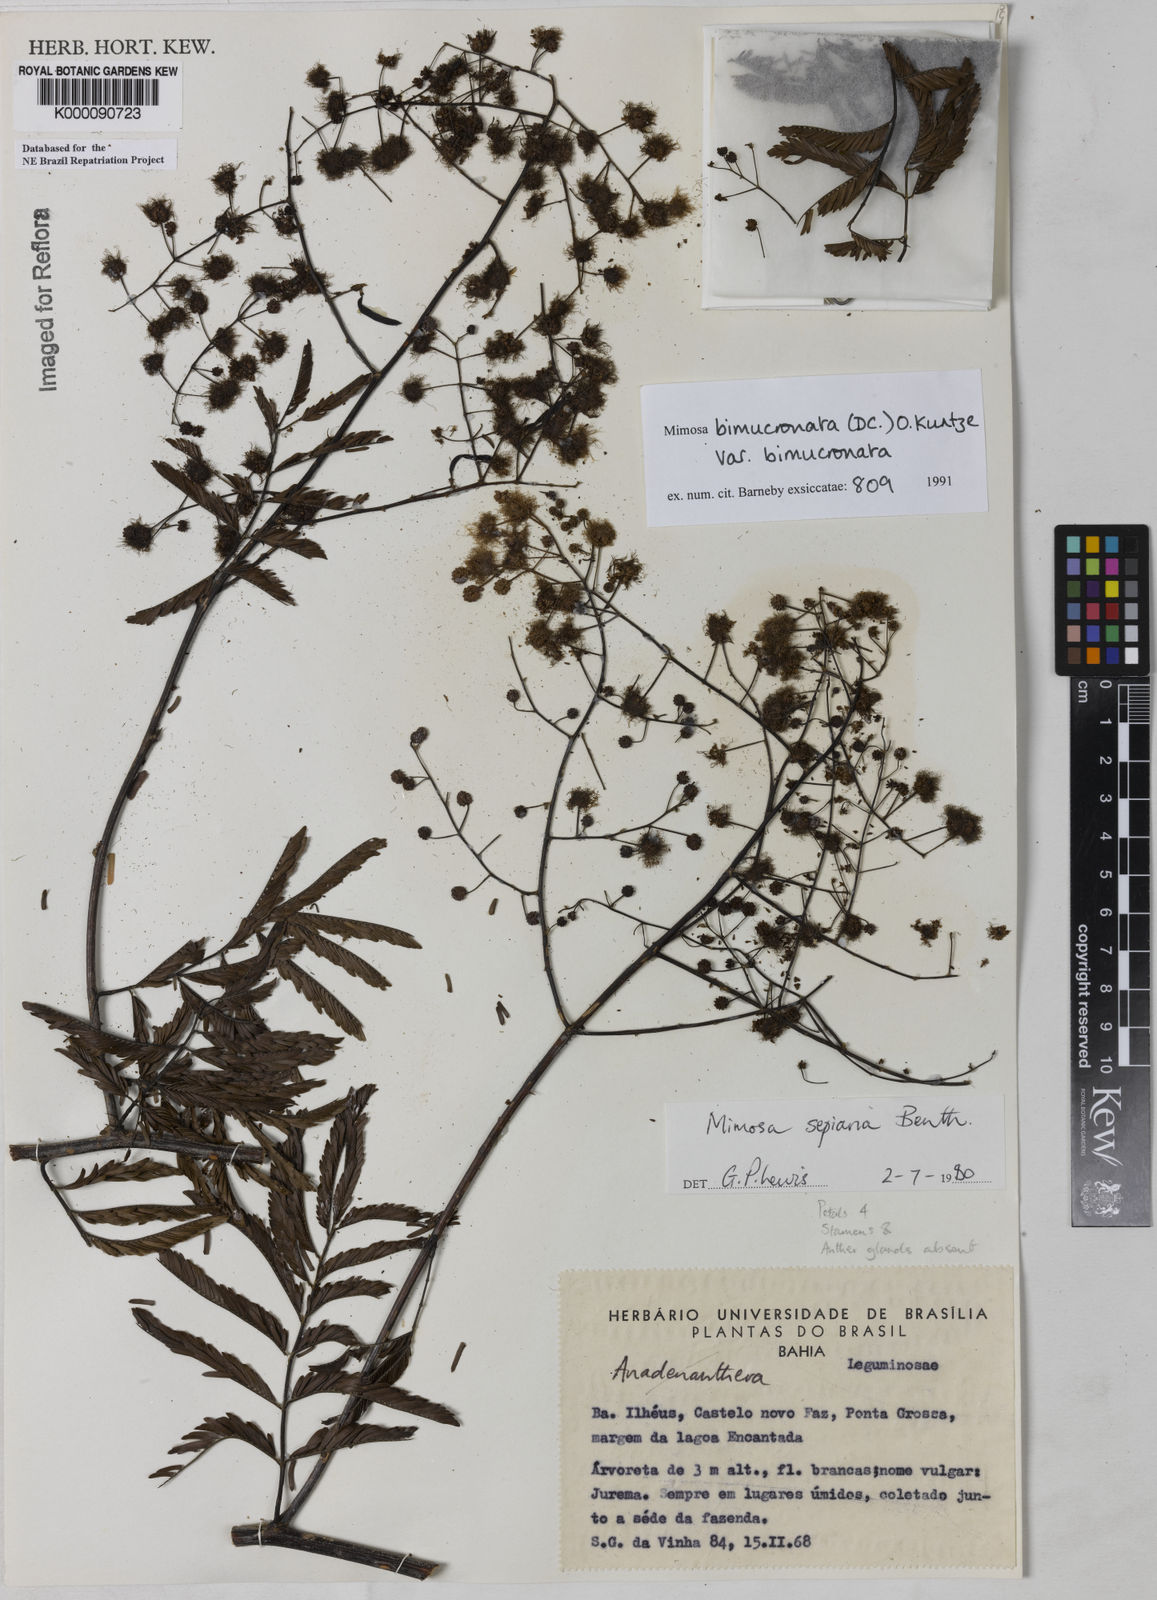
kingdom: Plantae
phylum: Tracheophyta
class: Magnoliopsida
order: Fabales
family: Fabaceae
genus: Mimosa
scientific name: Mimosa bimucronata
